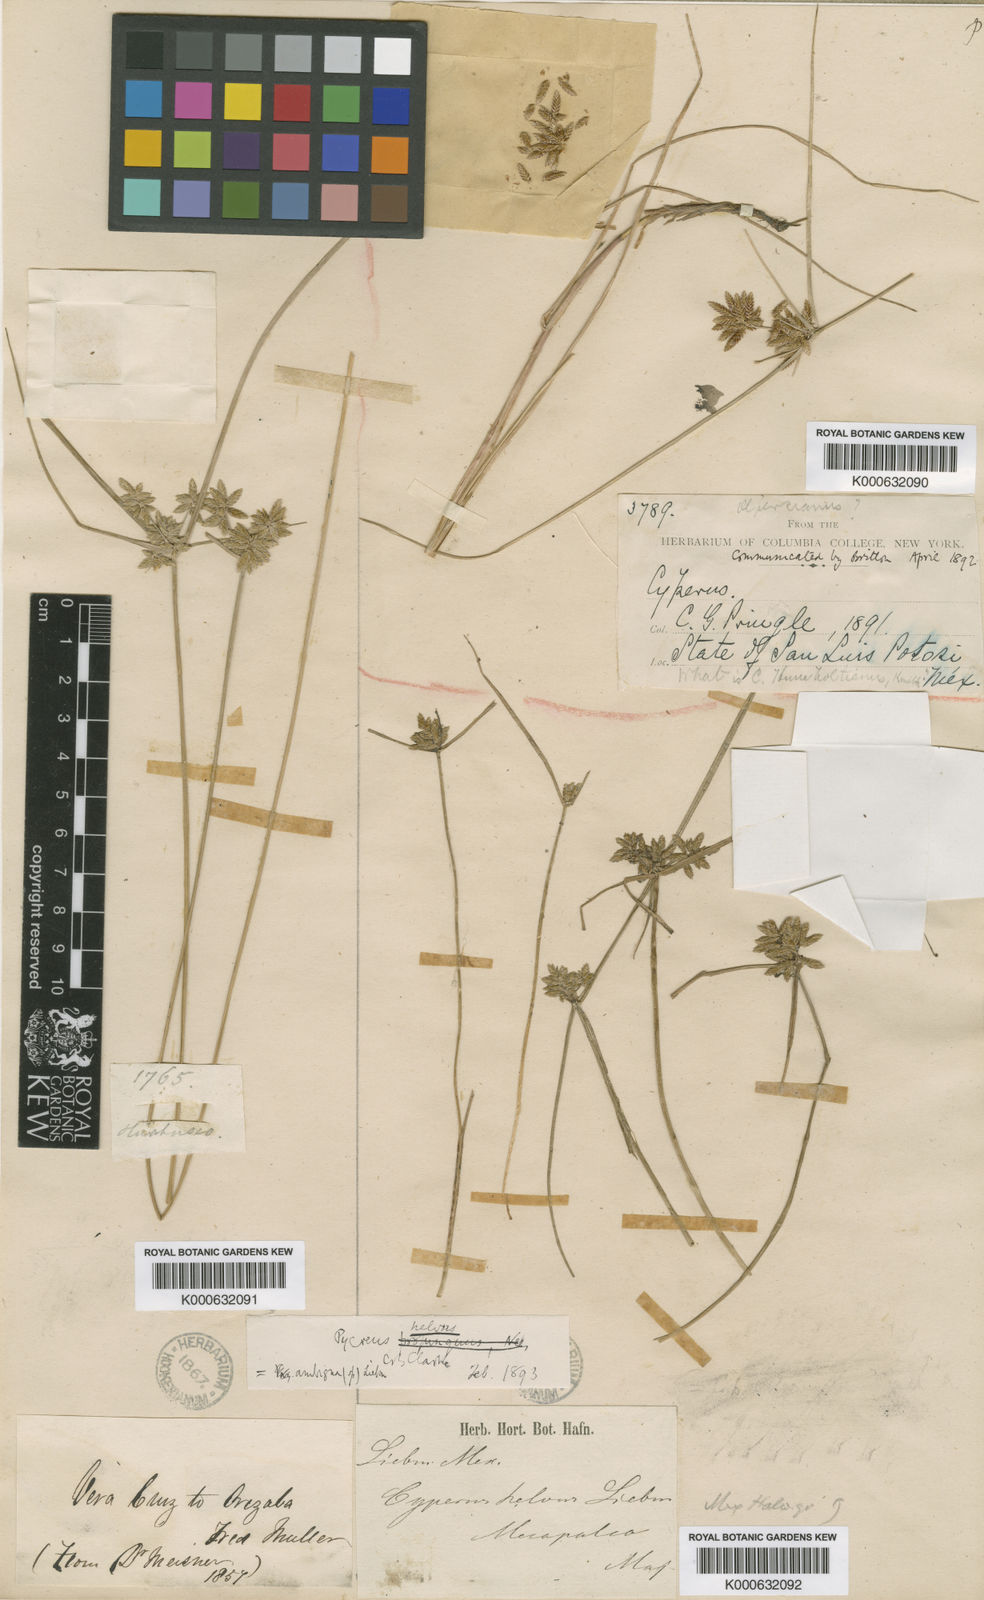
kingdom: Plantae
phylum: Tracheophyta
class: Liliopsida
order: Poales
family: Cyperaceae
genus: Cyperus
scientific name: Cyperus lanceolatus
